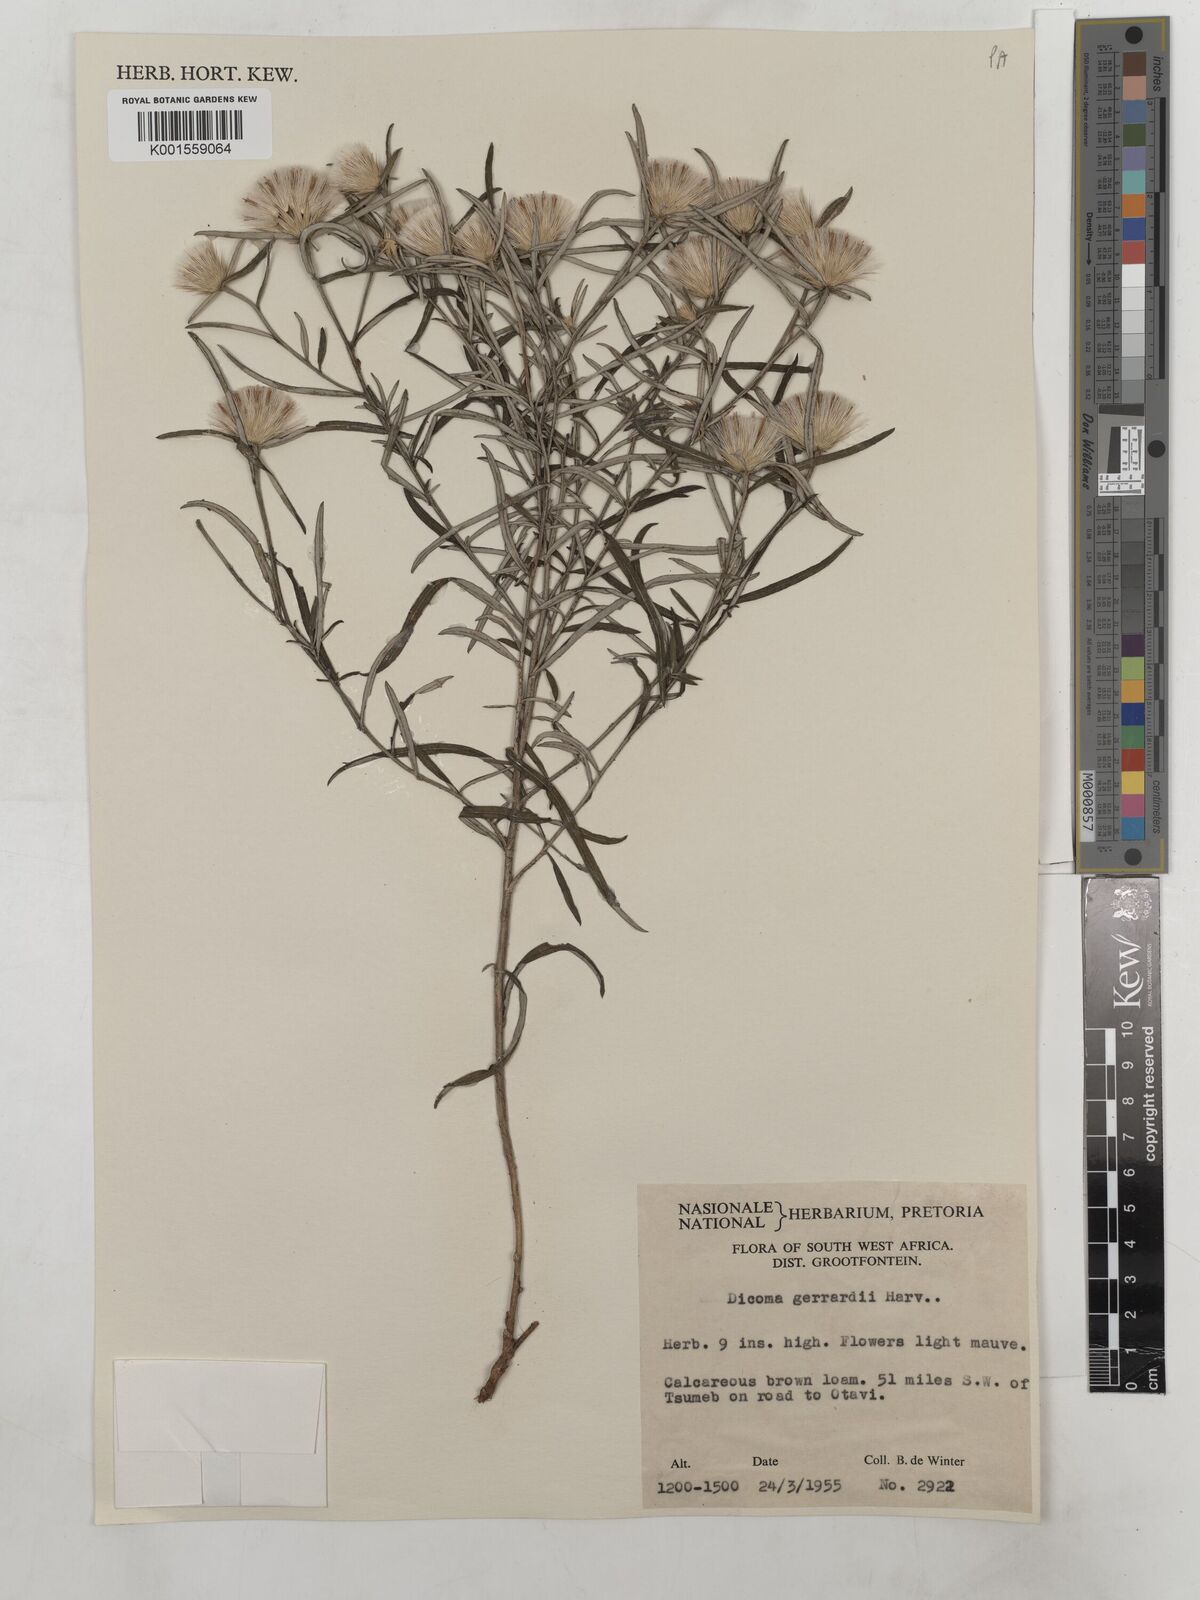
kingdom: Plantae
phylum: Tracheophyta
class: Magnoliopsida
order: Asterales
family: Asteraceae
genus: Dicoma
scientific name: Dicoma anomala
